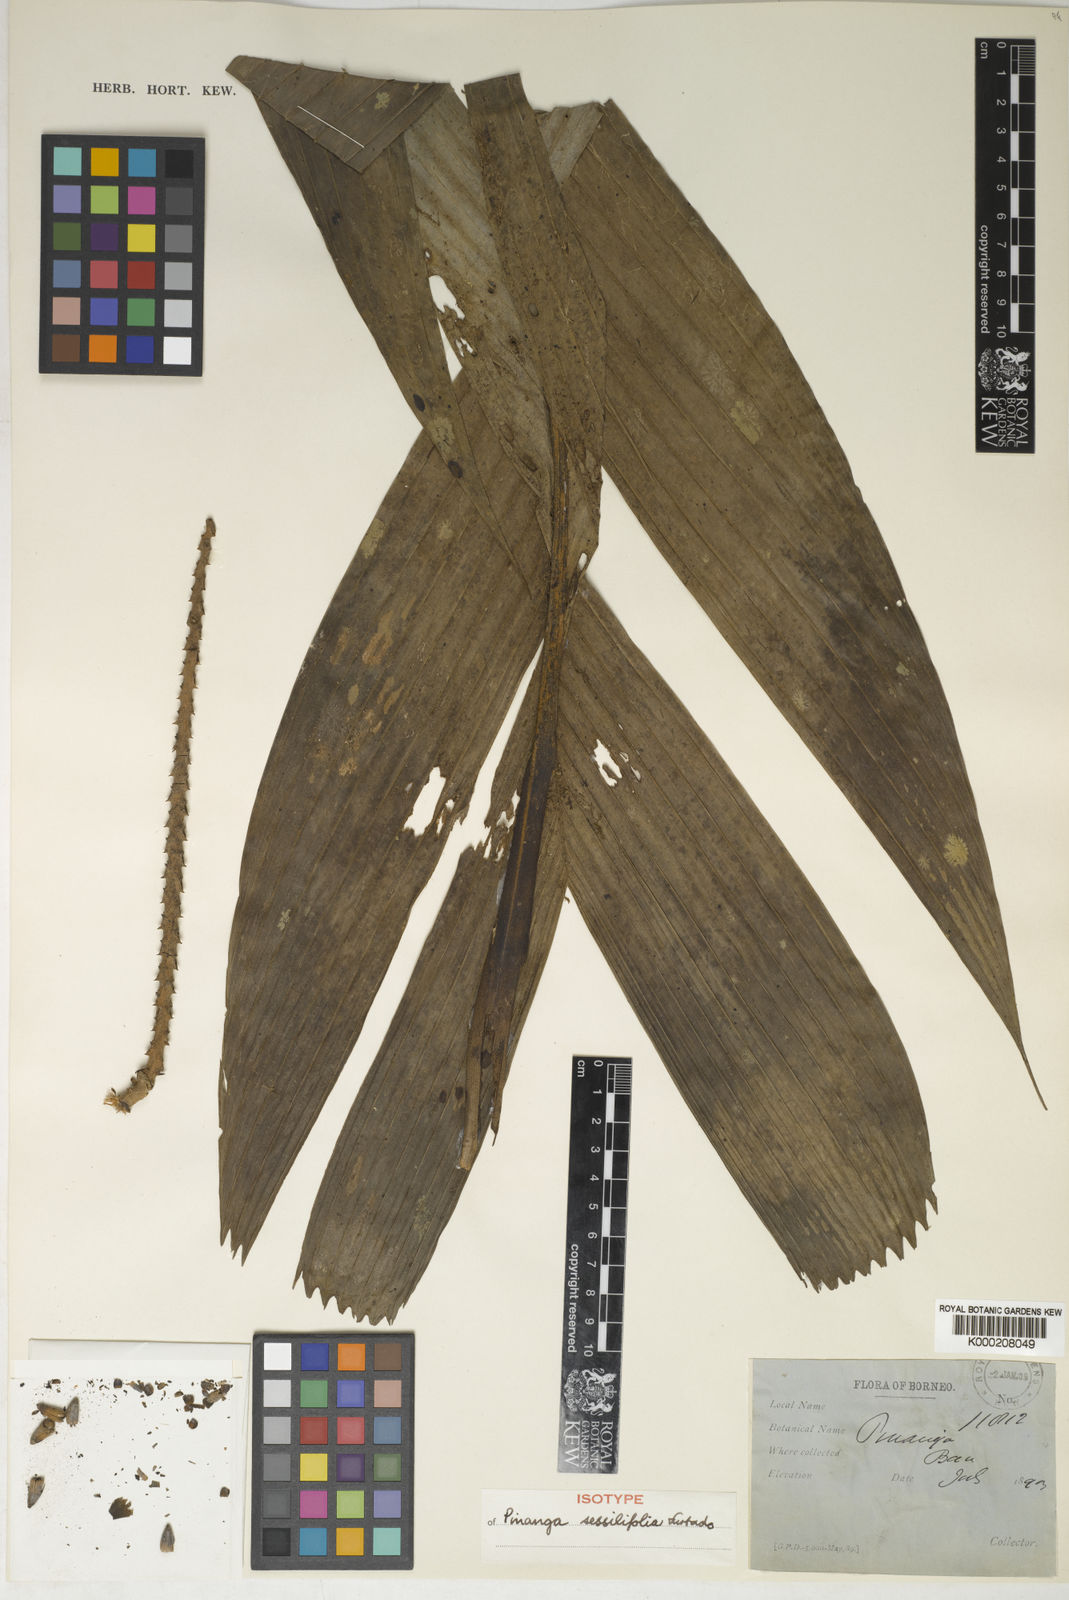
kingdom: Plantae
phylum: Tracheophyta
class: Liliopsida
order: Arecales
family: Arecaceae
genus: Pinanga
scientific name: Pinanga sessilifolia
